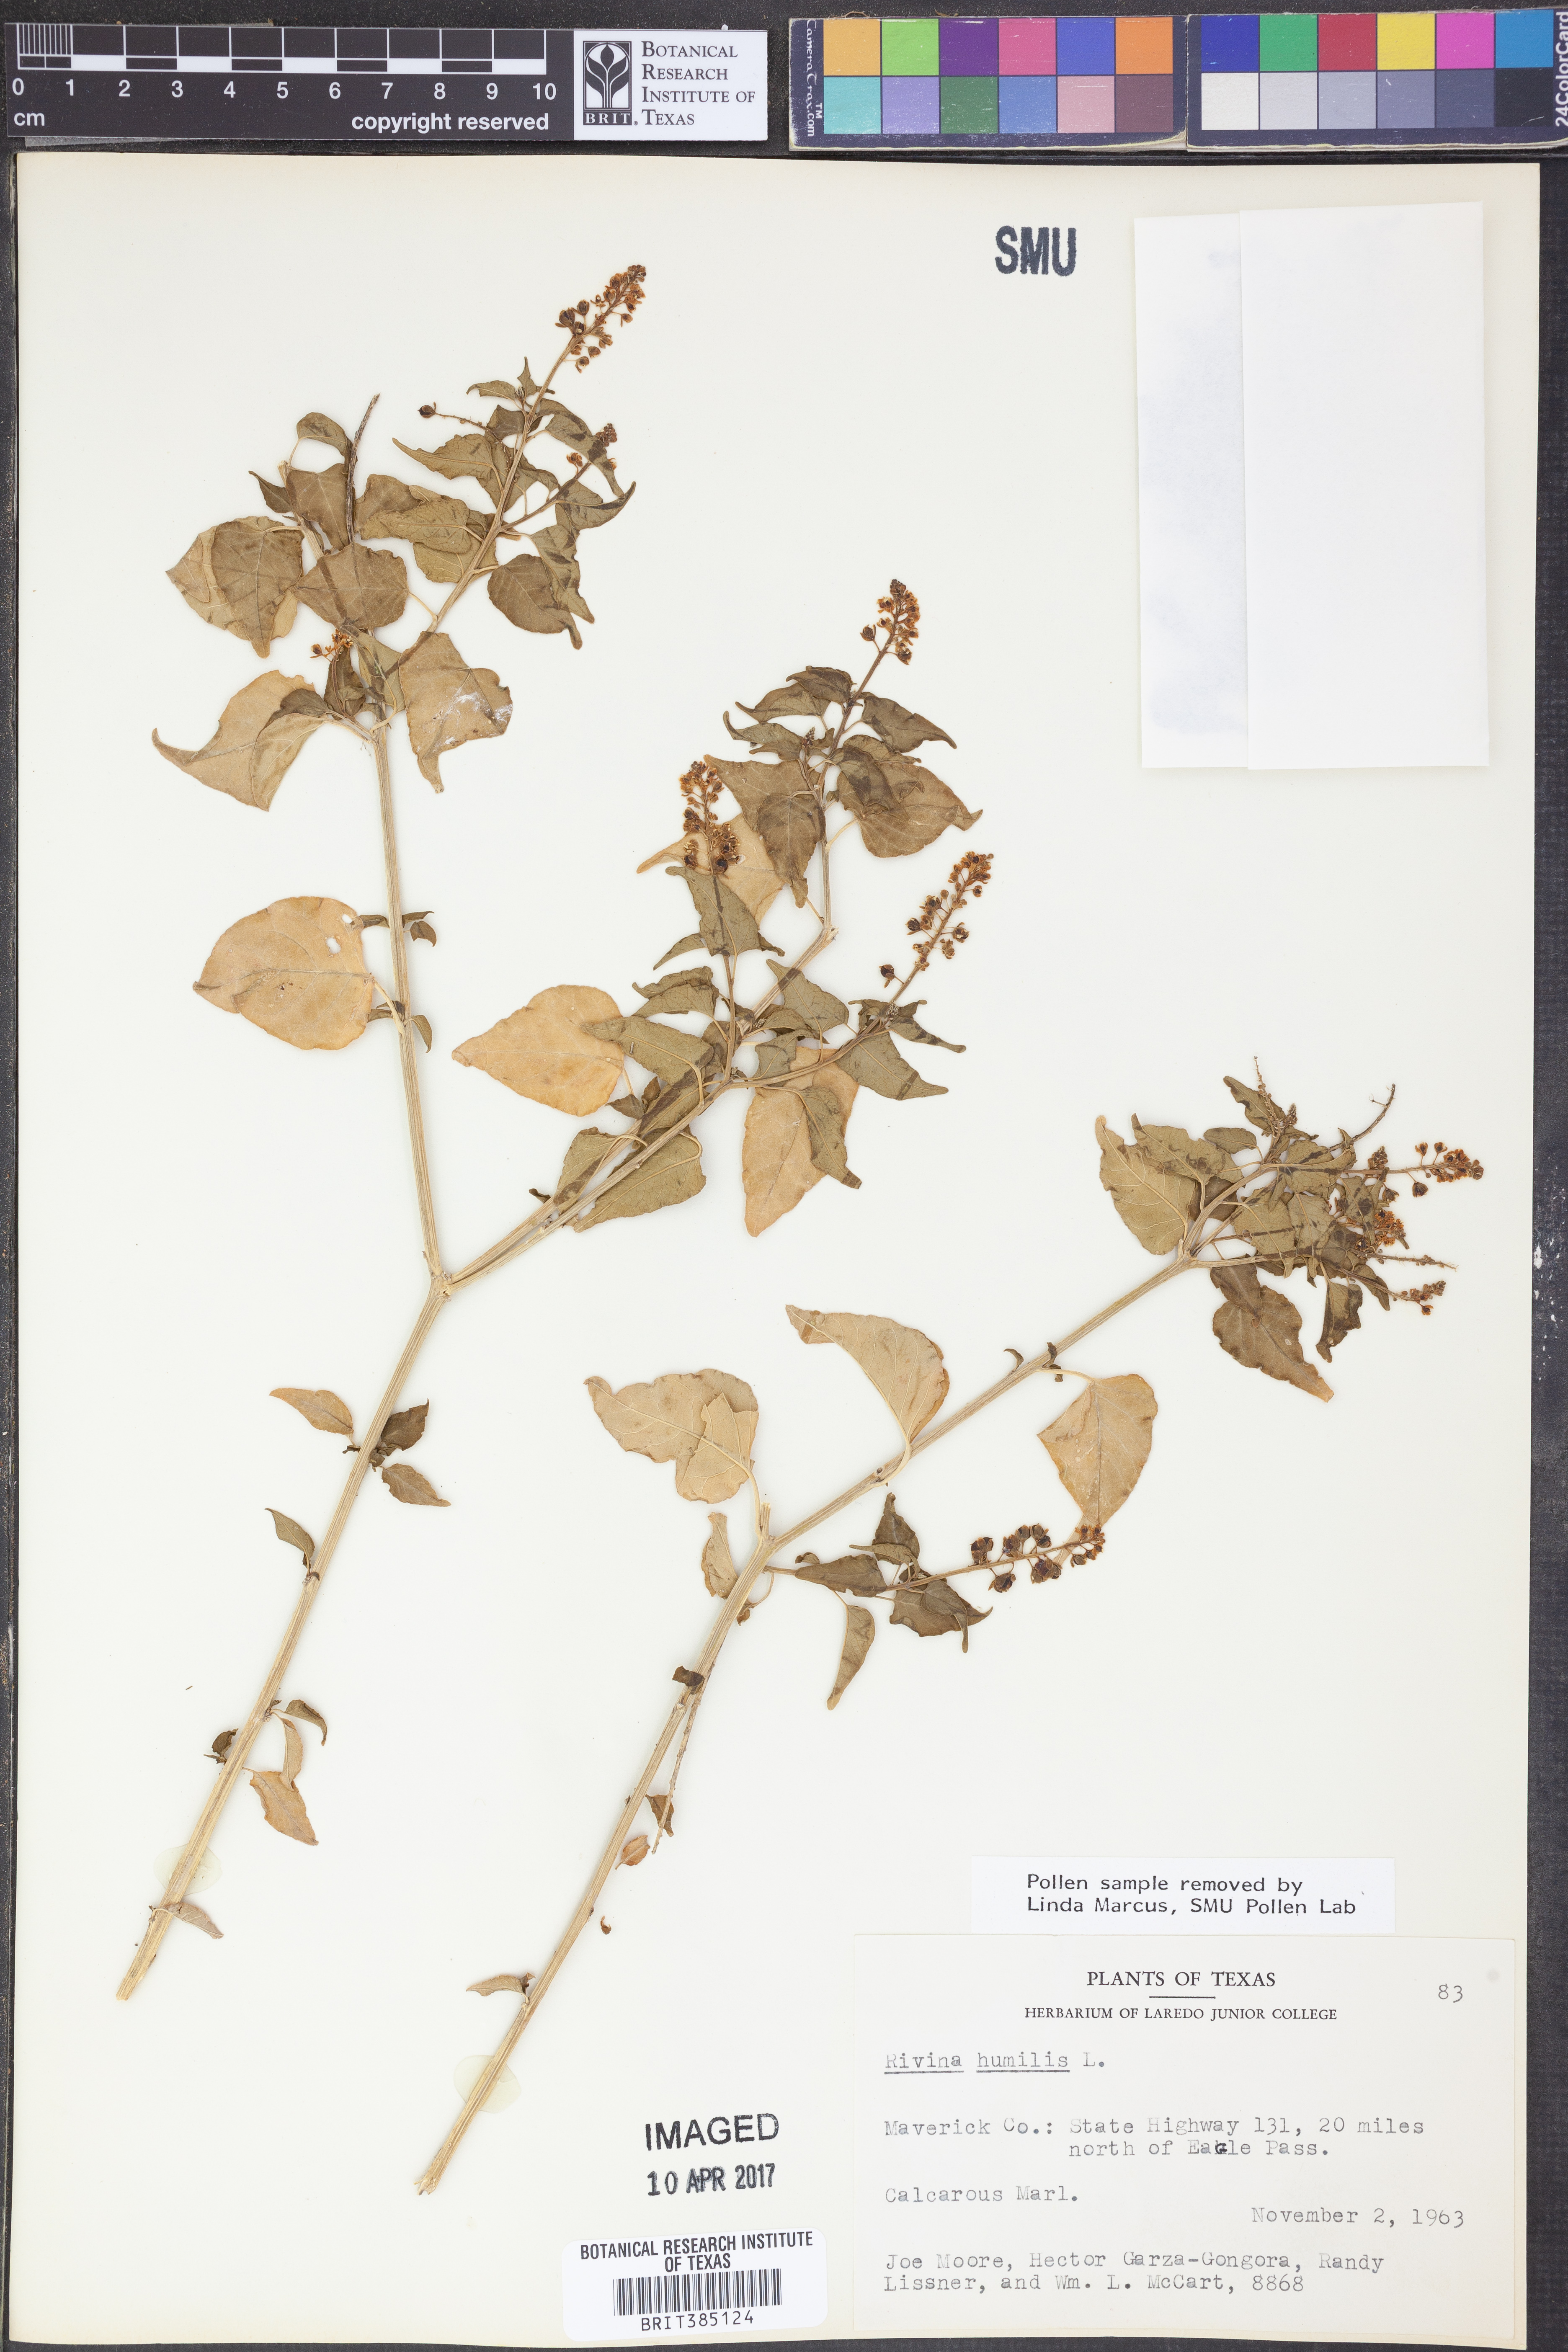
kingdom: Plantae
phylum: Tracheophyta
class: Magnoliopsida
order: Caryophyllales
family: Phytolaccaceae
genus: Rivina
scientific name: Rivina humilis
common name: Rougeplant
